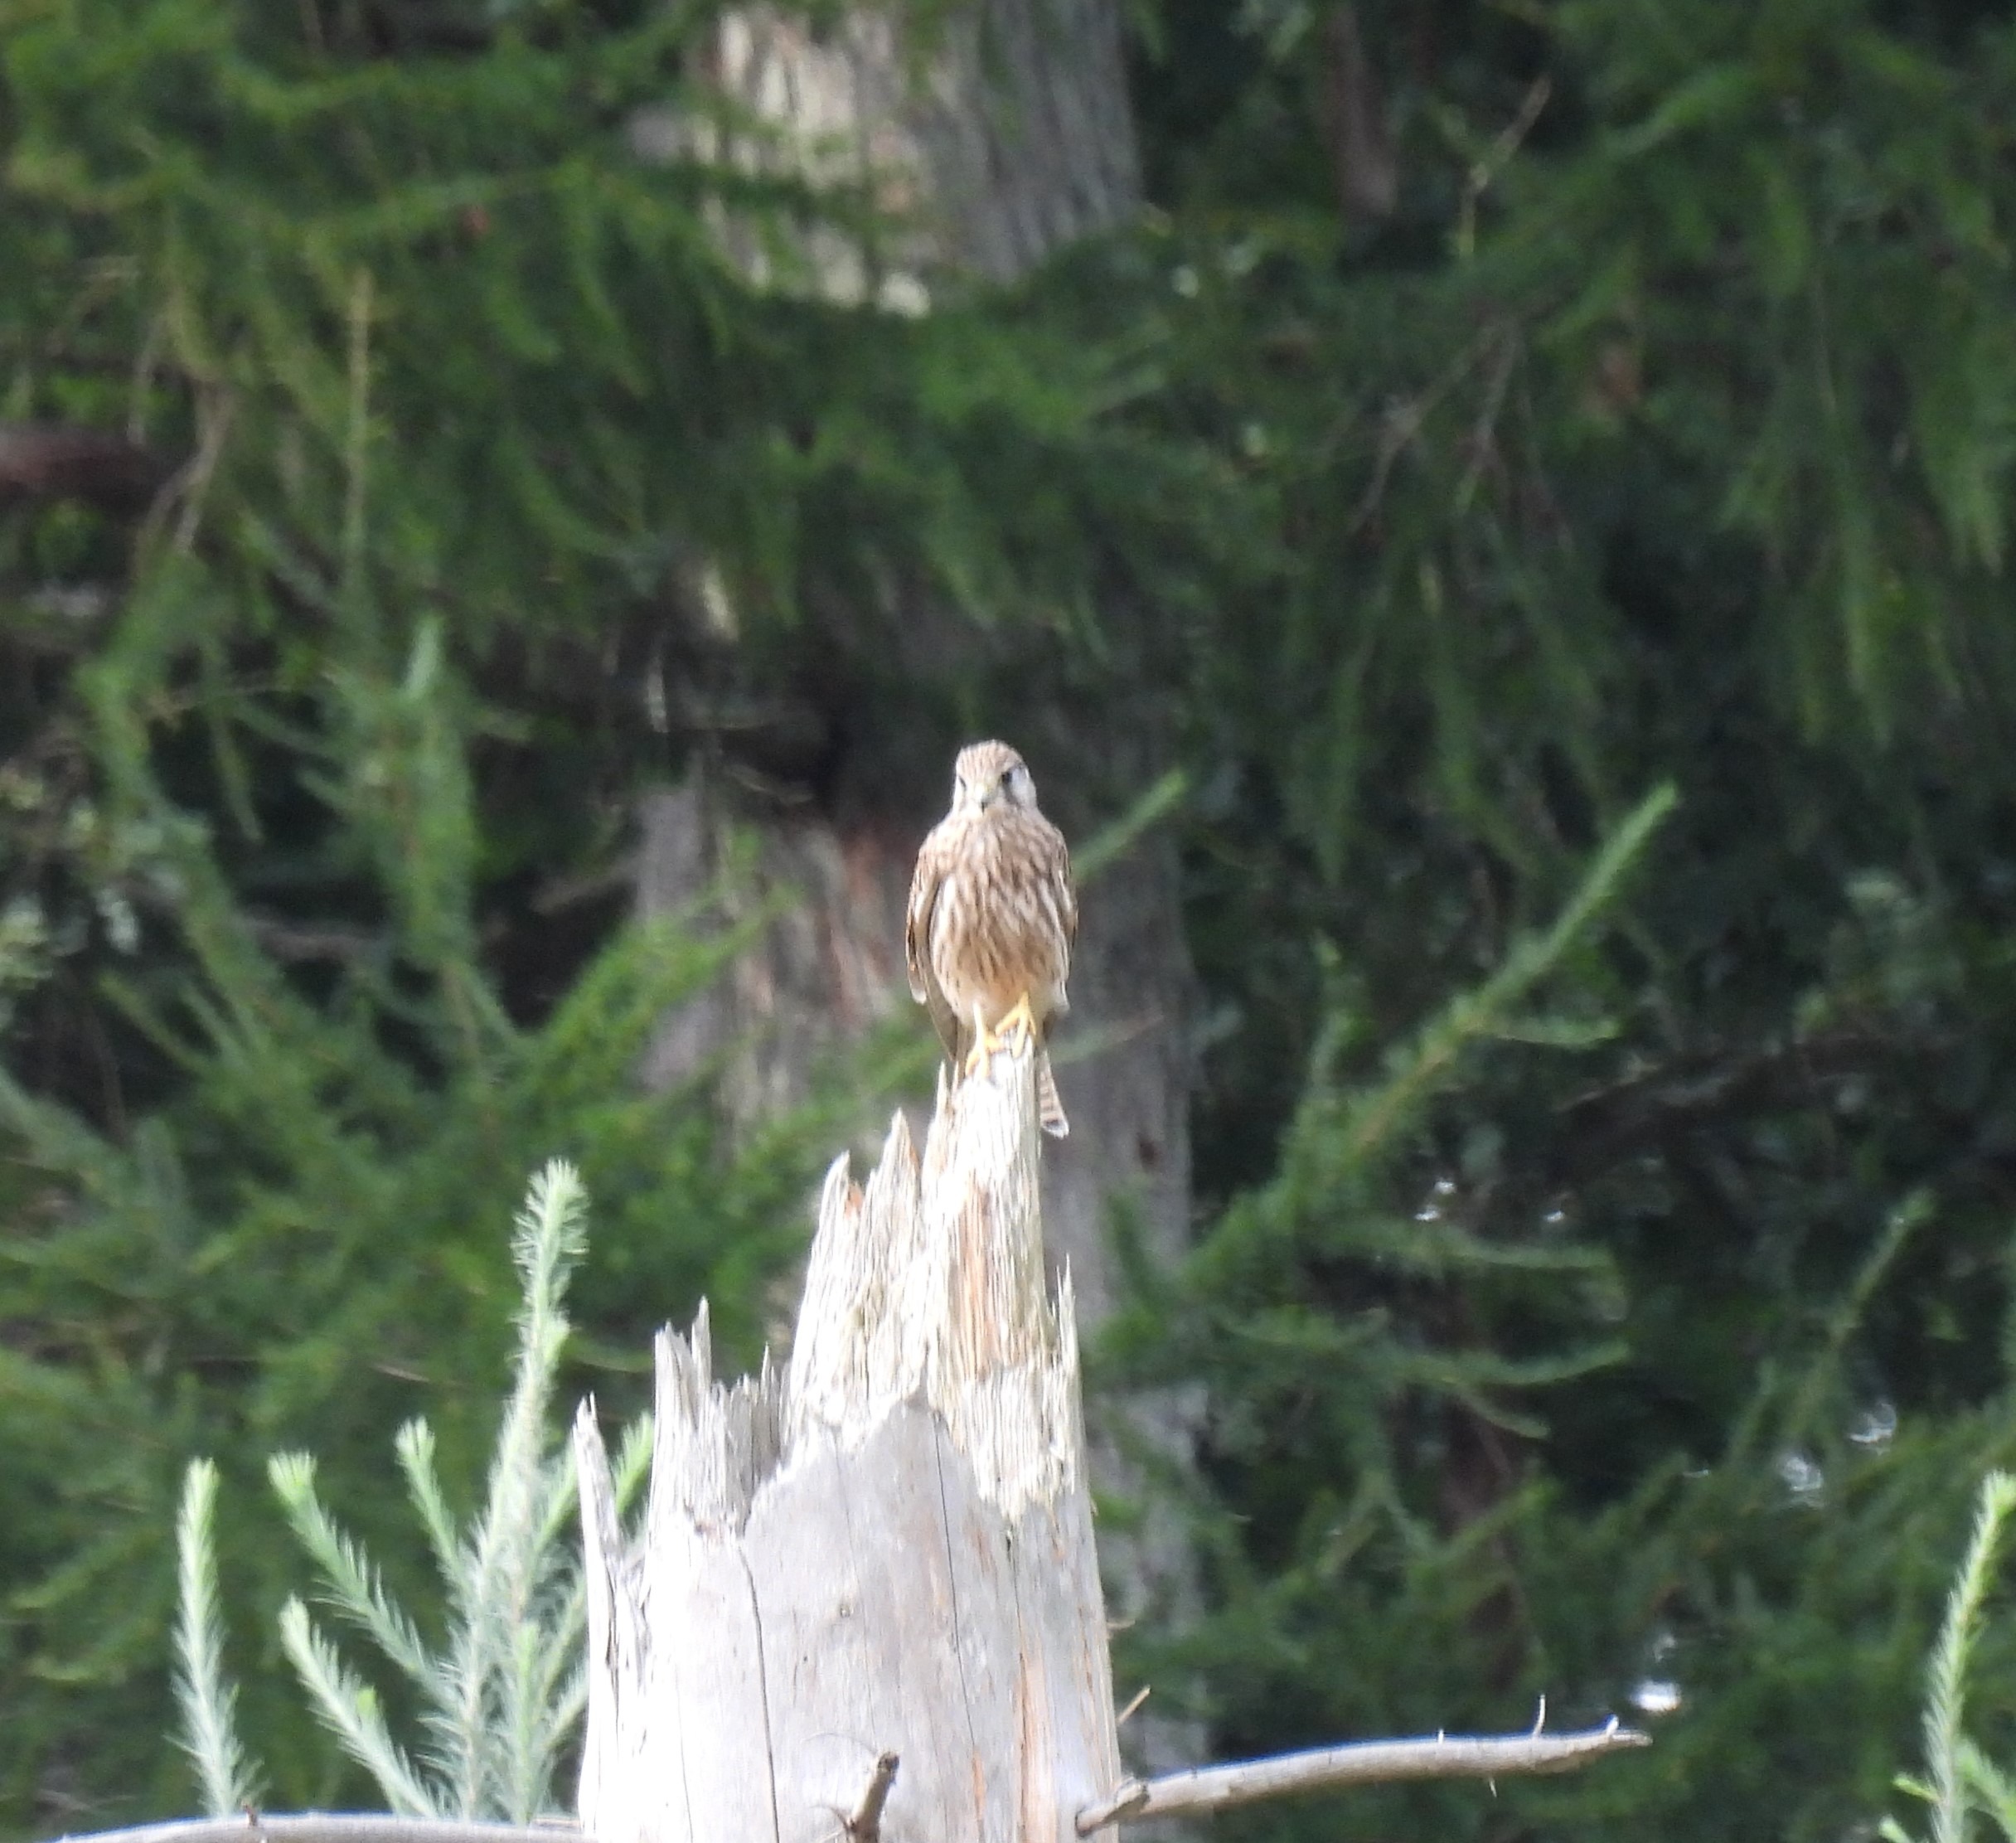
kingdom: Animalia
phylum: Chordata
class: Aves
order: Falconiformes
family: Falconidae
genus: Falco
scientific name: Falco tinnunculus
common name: Tårnfalk
